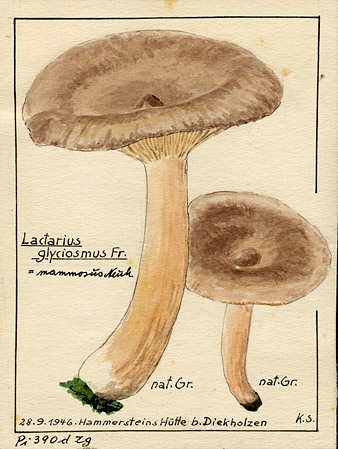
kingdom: Fungi
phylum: Basidiomycota
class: Agaricomycetes
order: Russulales
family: Russulaceae
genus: Lactarius
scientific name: Lactarius mammosus
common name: Pap milkcap
